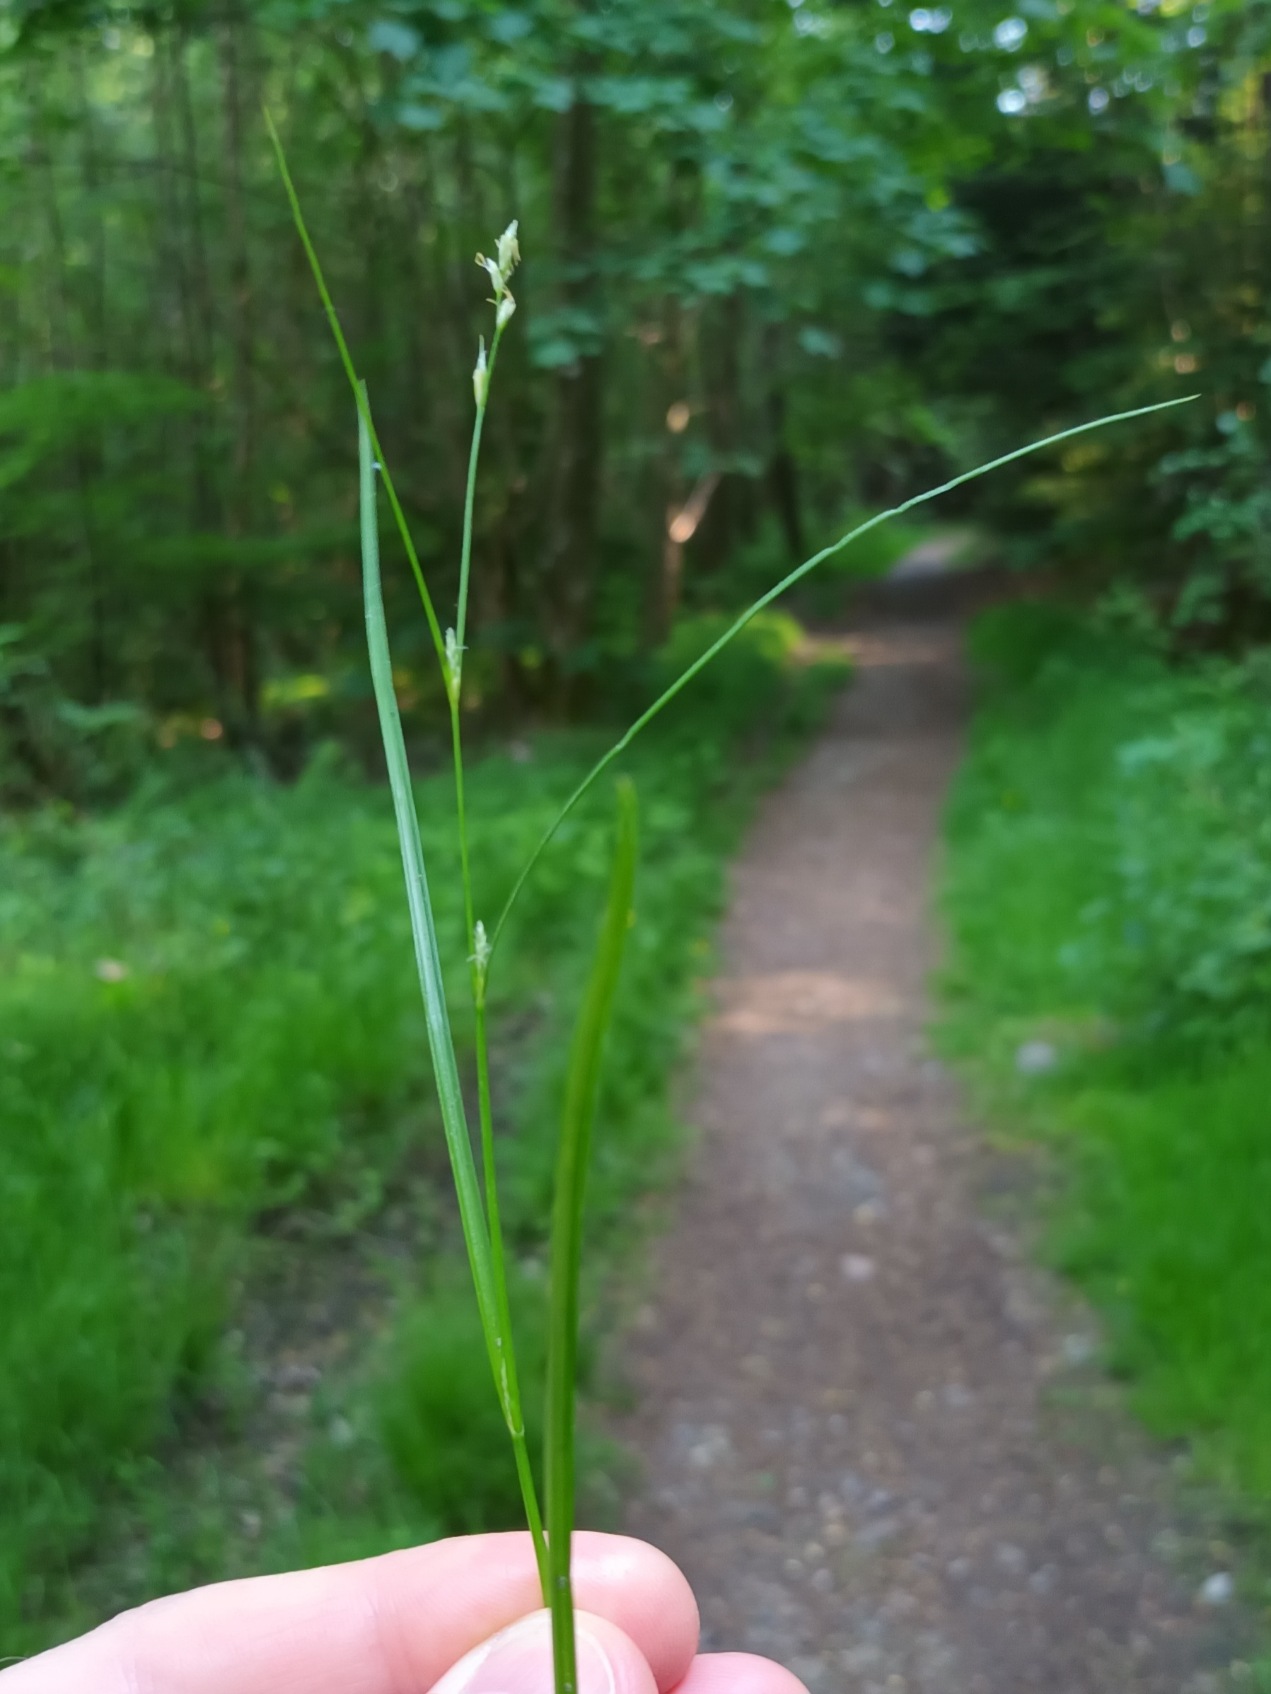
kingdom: Plantae
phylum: Tracheophyta
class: Liliopsida
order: Poales
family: Cyperaceae
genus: Carex
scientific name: Carex remota
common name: Akselblomstret star
